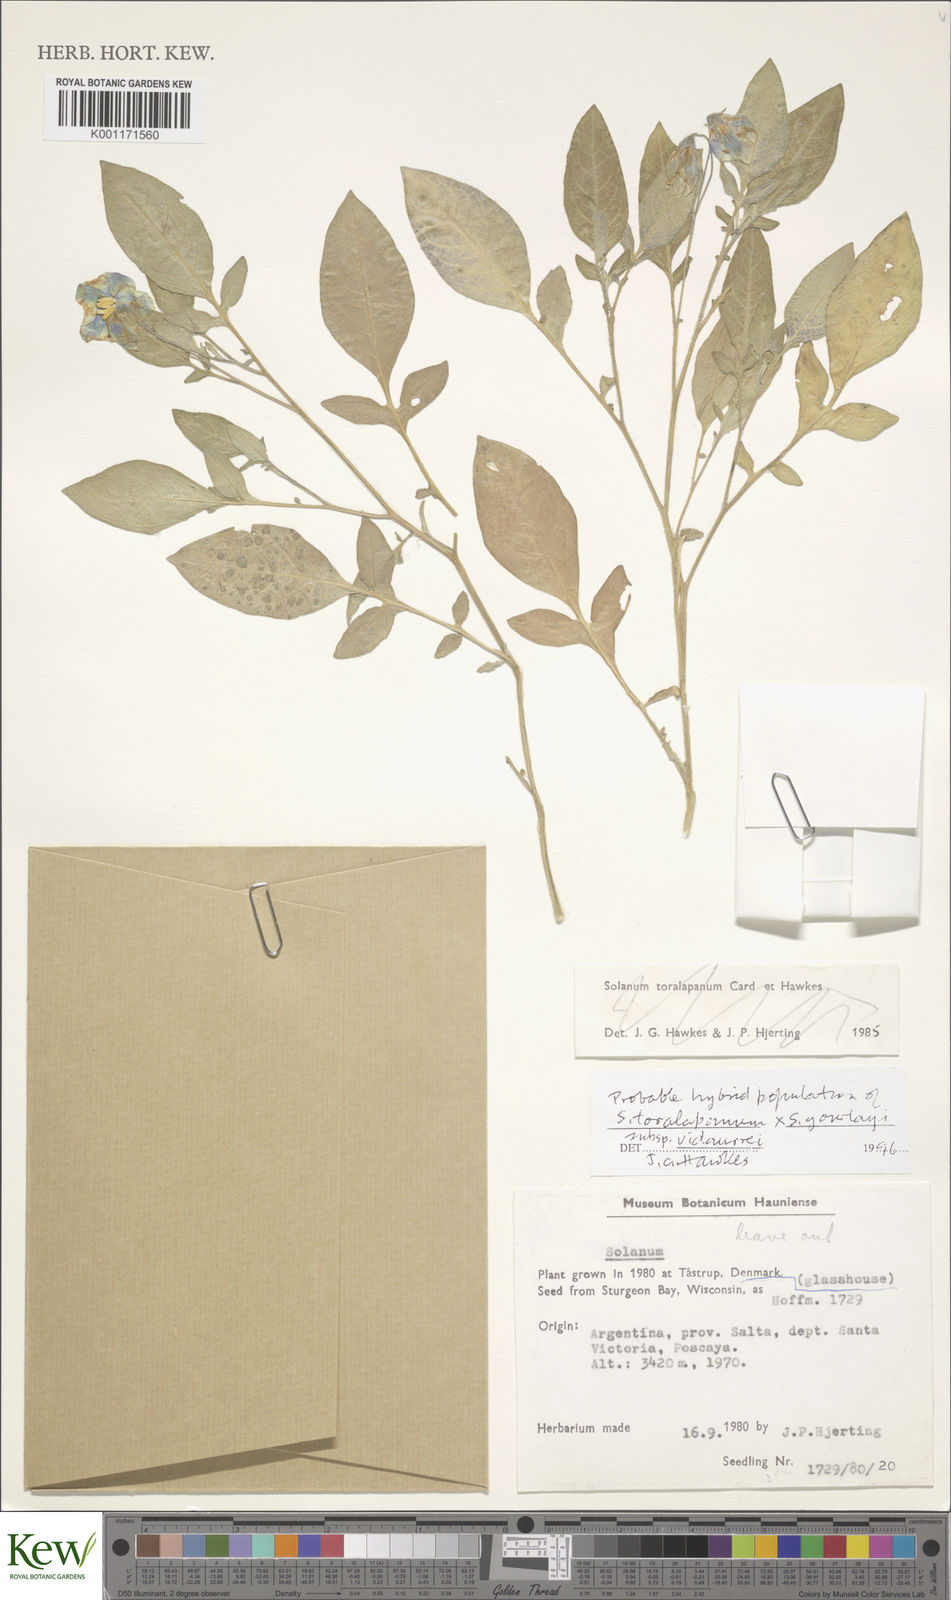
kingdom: Plantae
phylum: Tracheophyta
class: Magnoliopsida
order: Solanales
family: Solanaceae
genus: Solanum
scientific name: Solanum brevicaule
